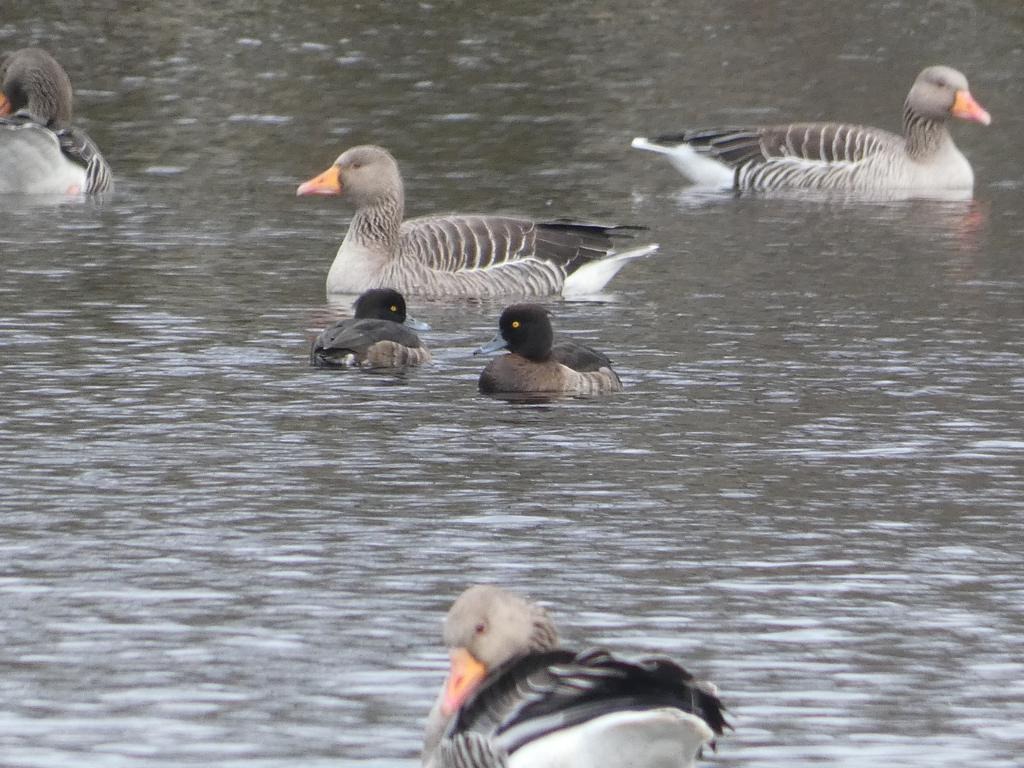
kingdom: Animalia
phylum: Chordata
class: Aves
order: Anseriformes
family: Anatidae
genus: Aythya
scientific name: Aythya fuligula
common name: Troldand
